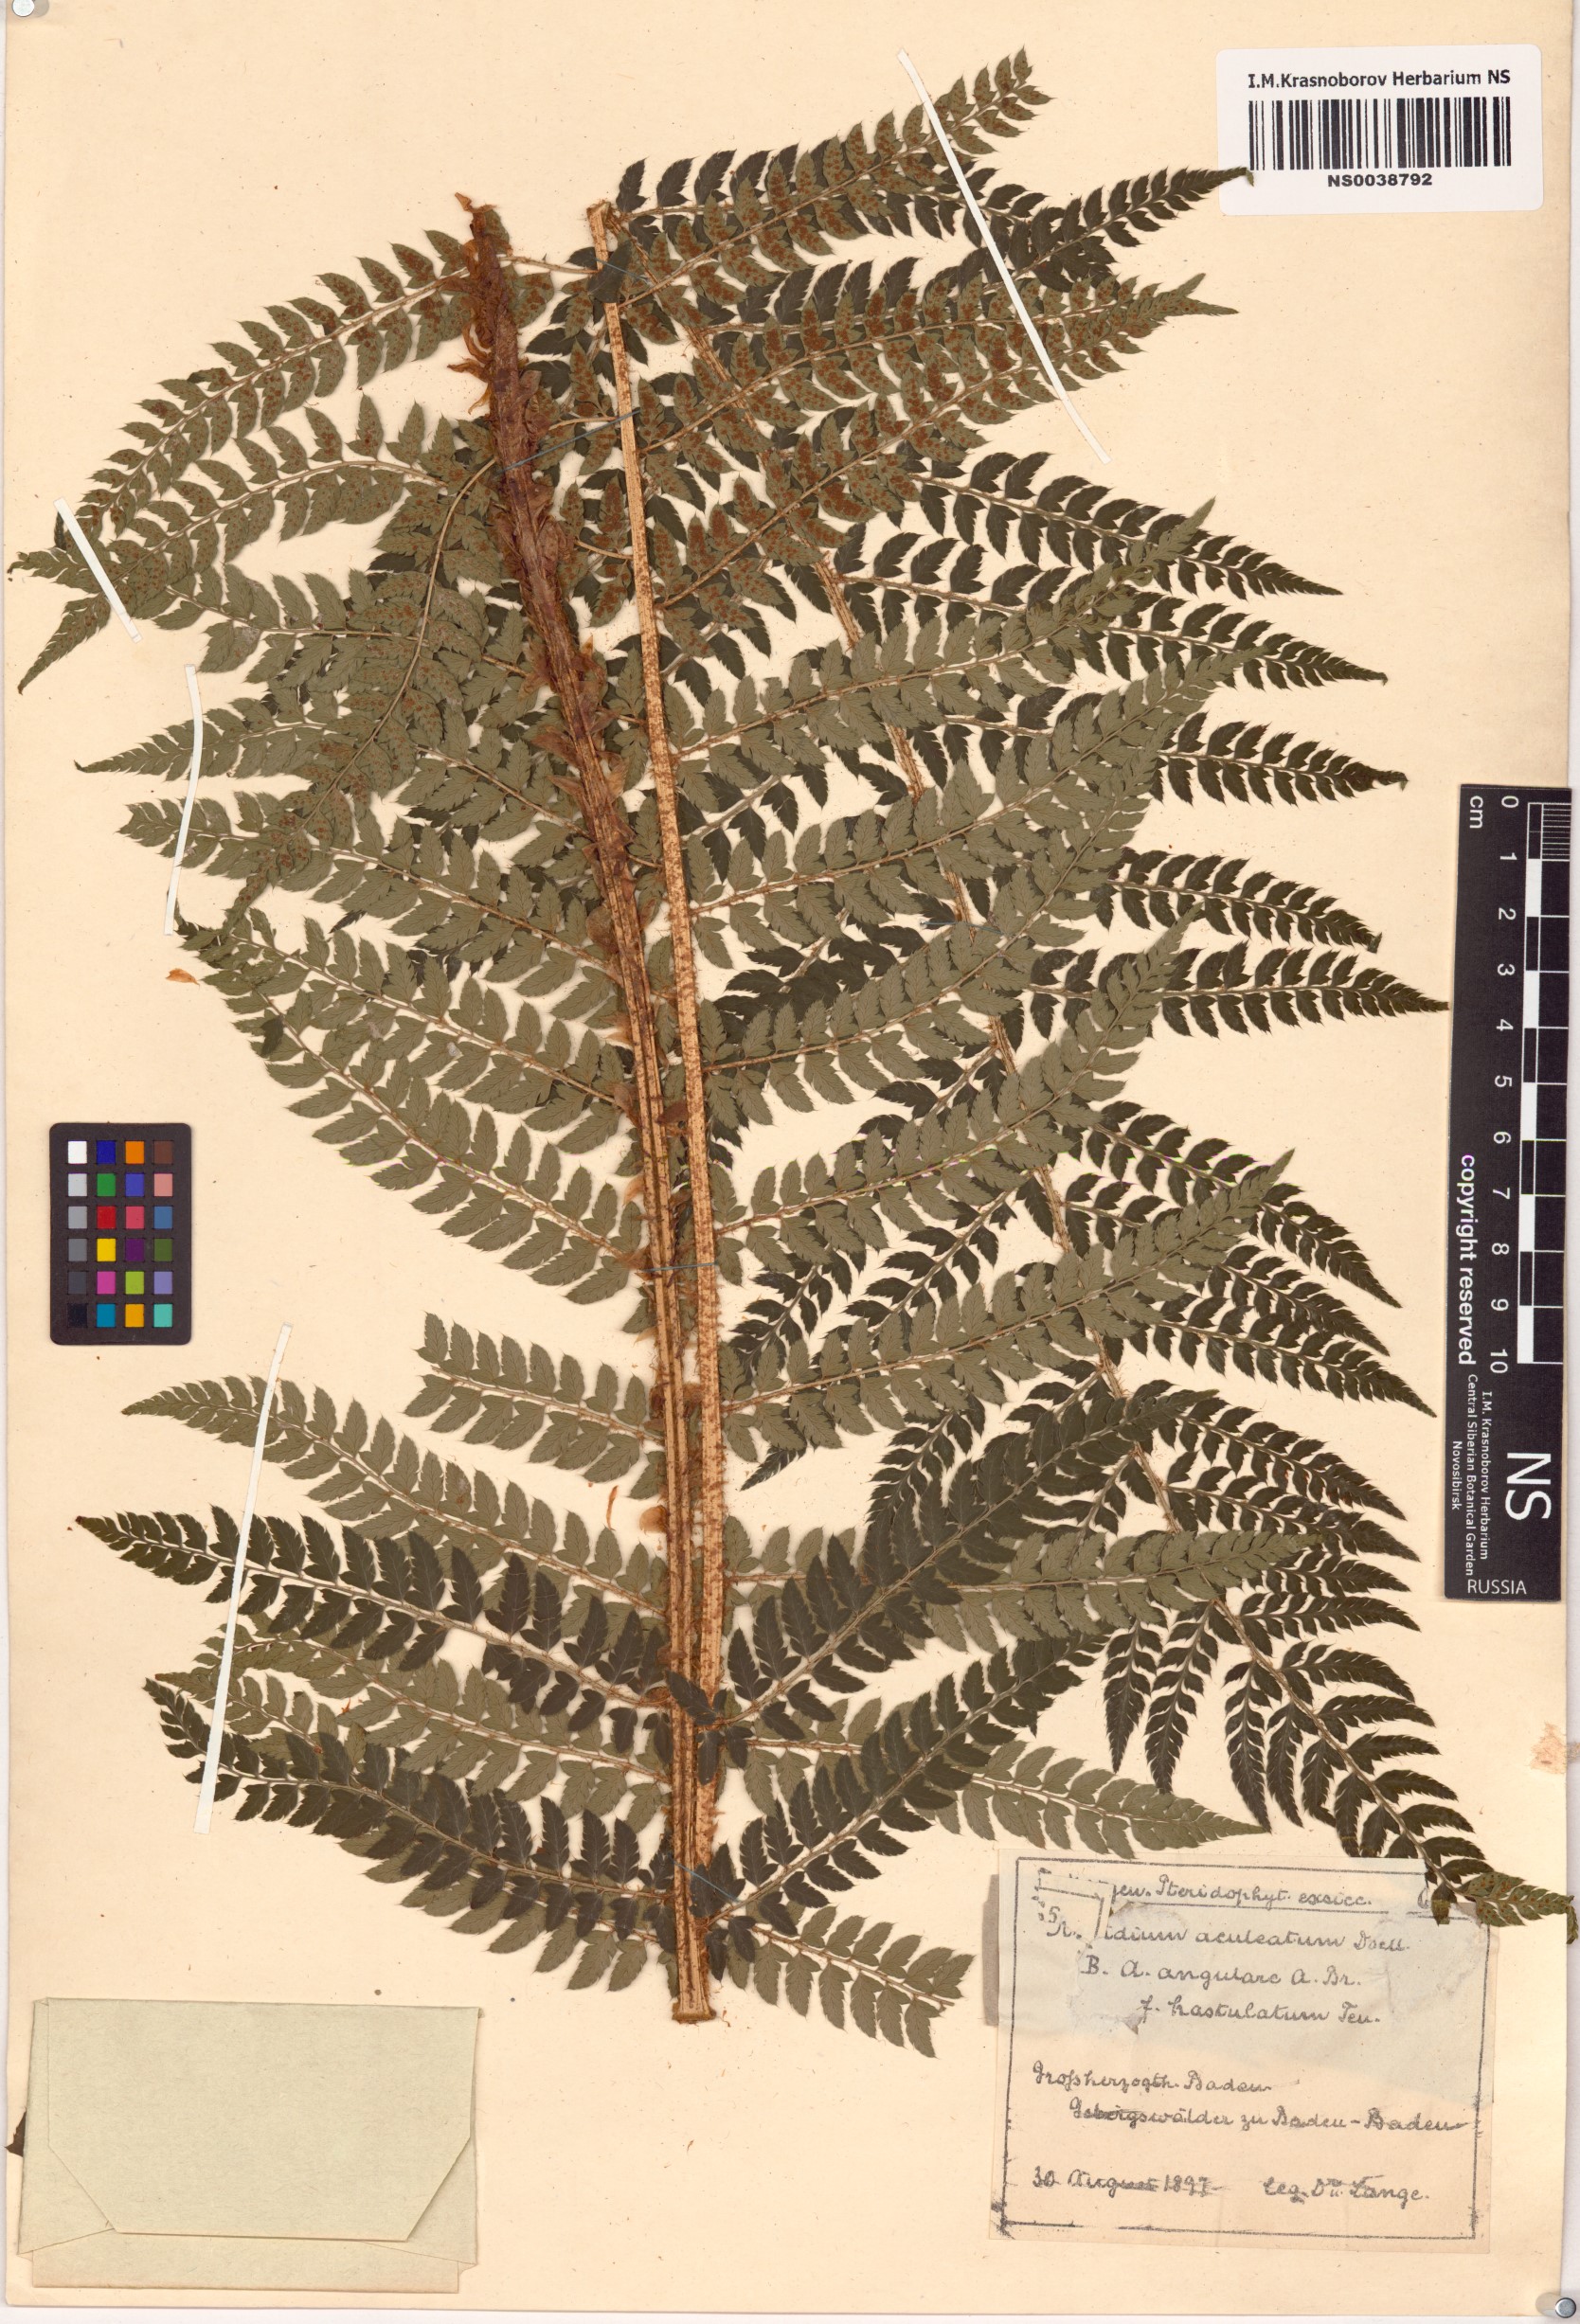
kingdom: Plantae
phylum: Tracheophyta
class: Polypodiopsida
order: Polypodiales
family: Dryopteridaceae
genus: Polystichum
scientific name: Polystichum aculeatum
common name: Hard shield-fern
